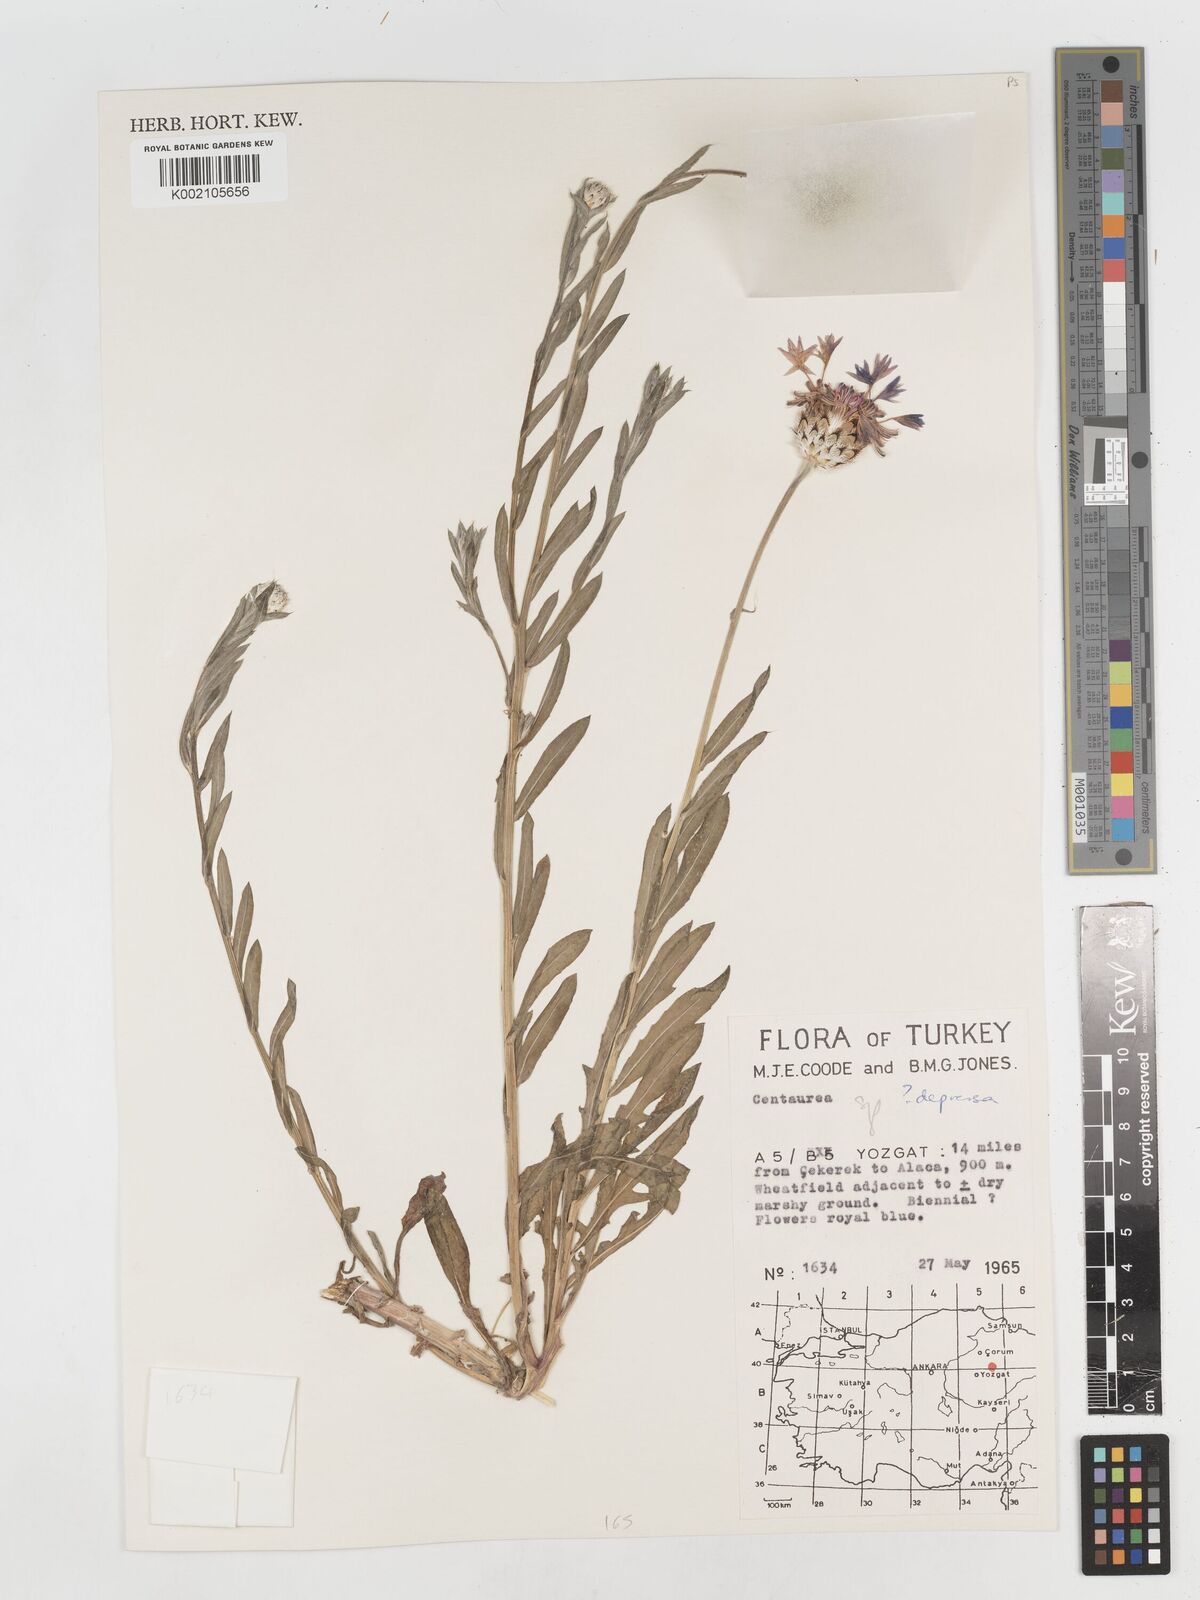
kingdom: Plantae
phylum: Tracheophyta
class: Magnoliopsida
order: Asterales
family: Asteraceae
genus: Centaurea
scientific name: Centaurea depressa
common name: Iranian knapweed
